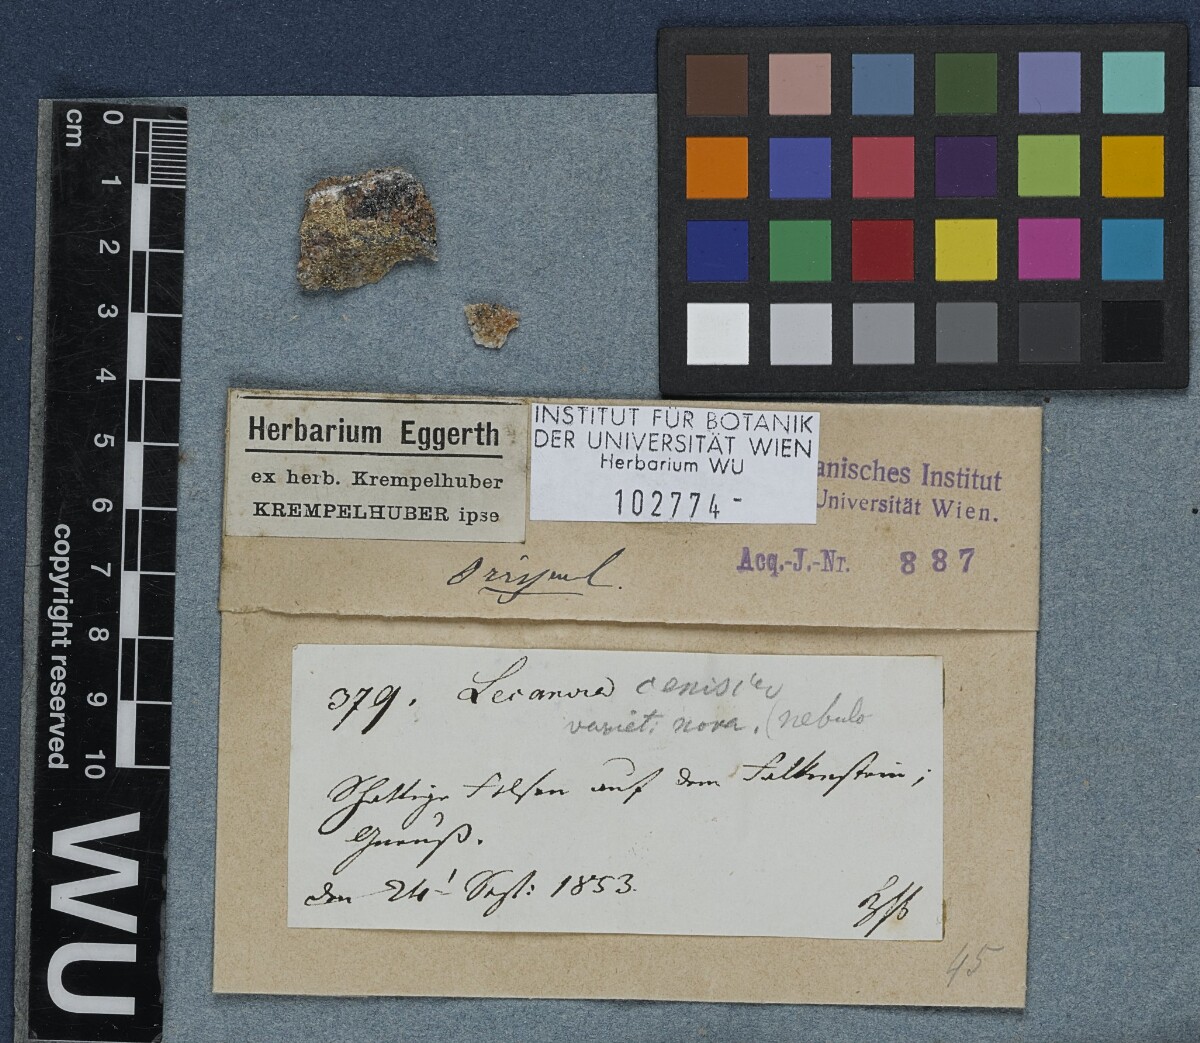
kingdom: Fungi
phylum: Ascomycota
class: Lecanoromycetes
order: Lecanorales
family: Lecanoraceae
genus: Lecanora
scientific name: Lecanora cenisia
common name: Smoky rim lichen
